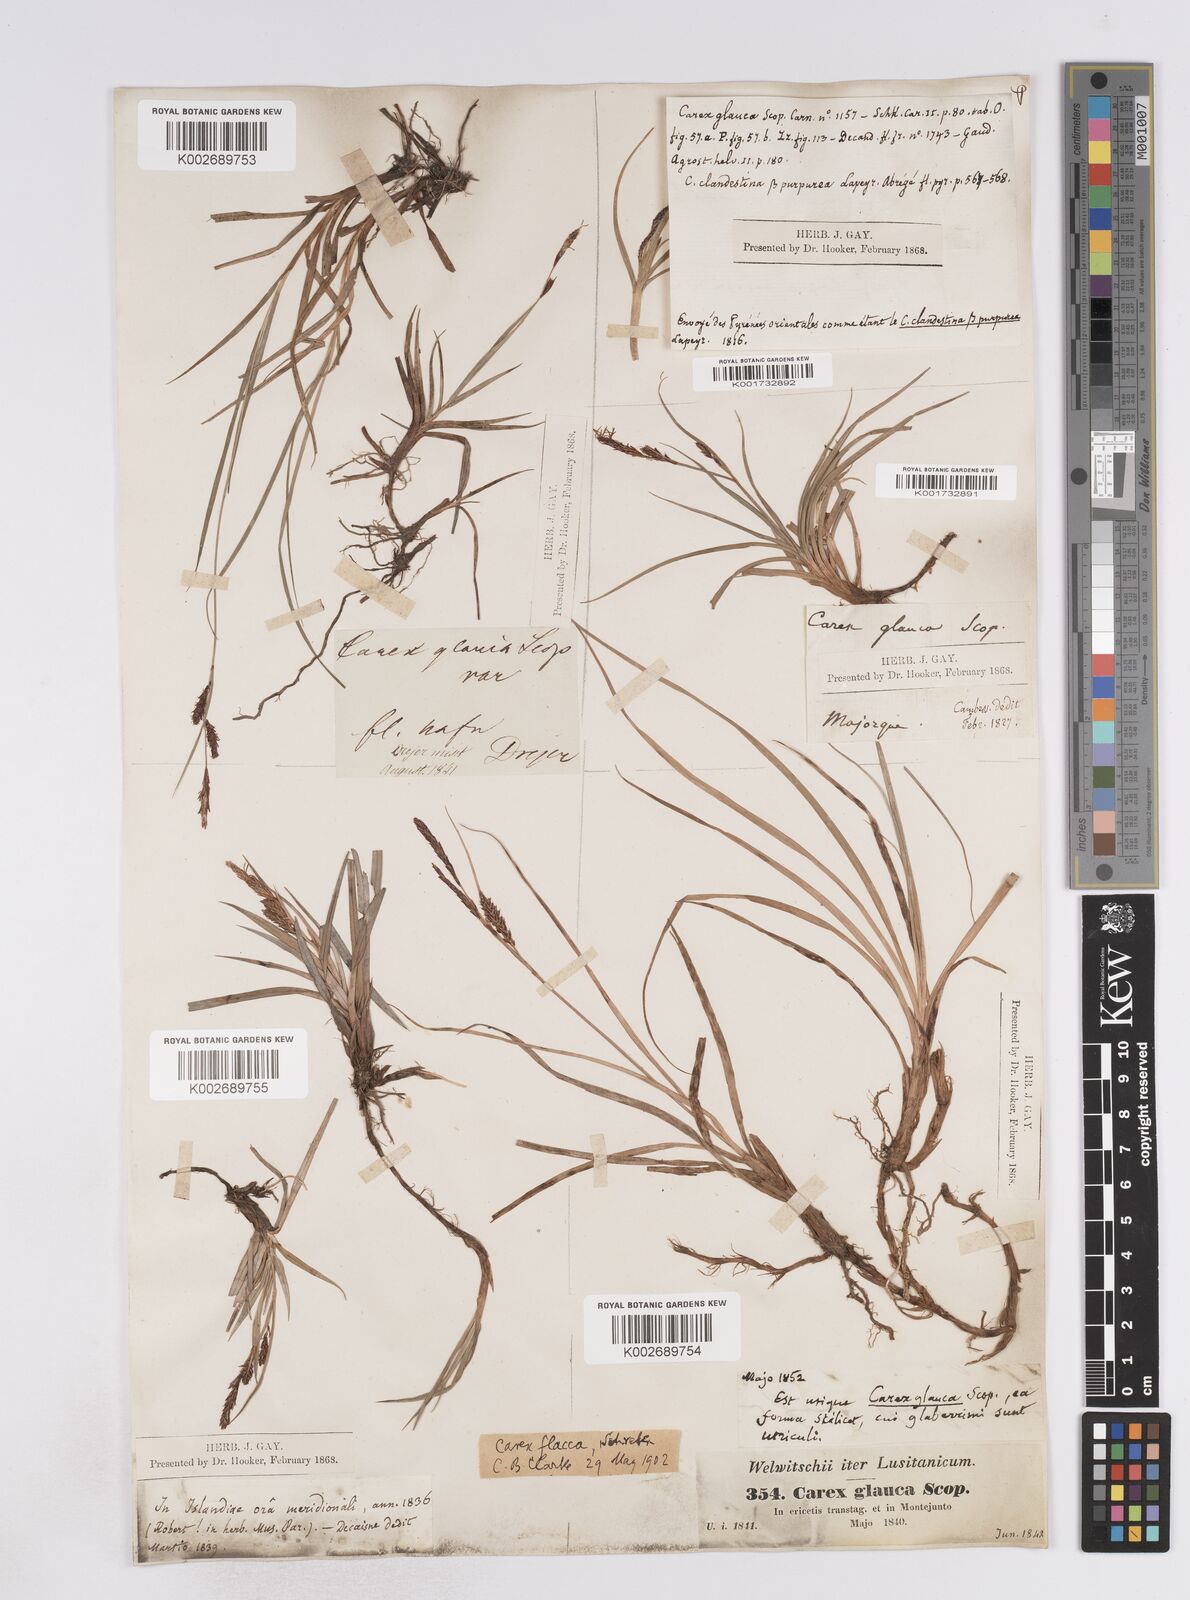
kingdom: Plantae
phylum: Tracheophyta
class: Liliopsida
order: Poales
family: Cyperaceae
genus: Carex
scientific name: Carex flacca
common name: Glaucous sedge
